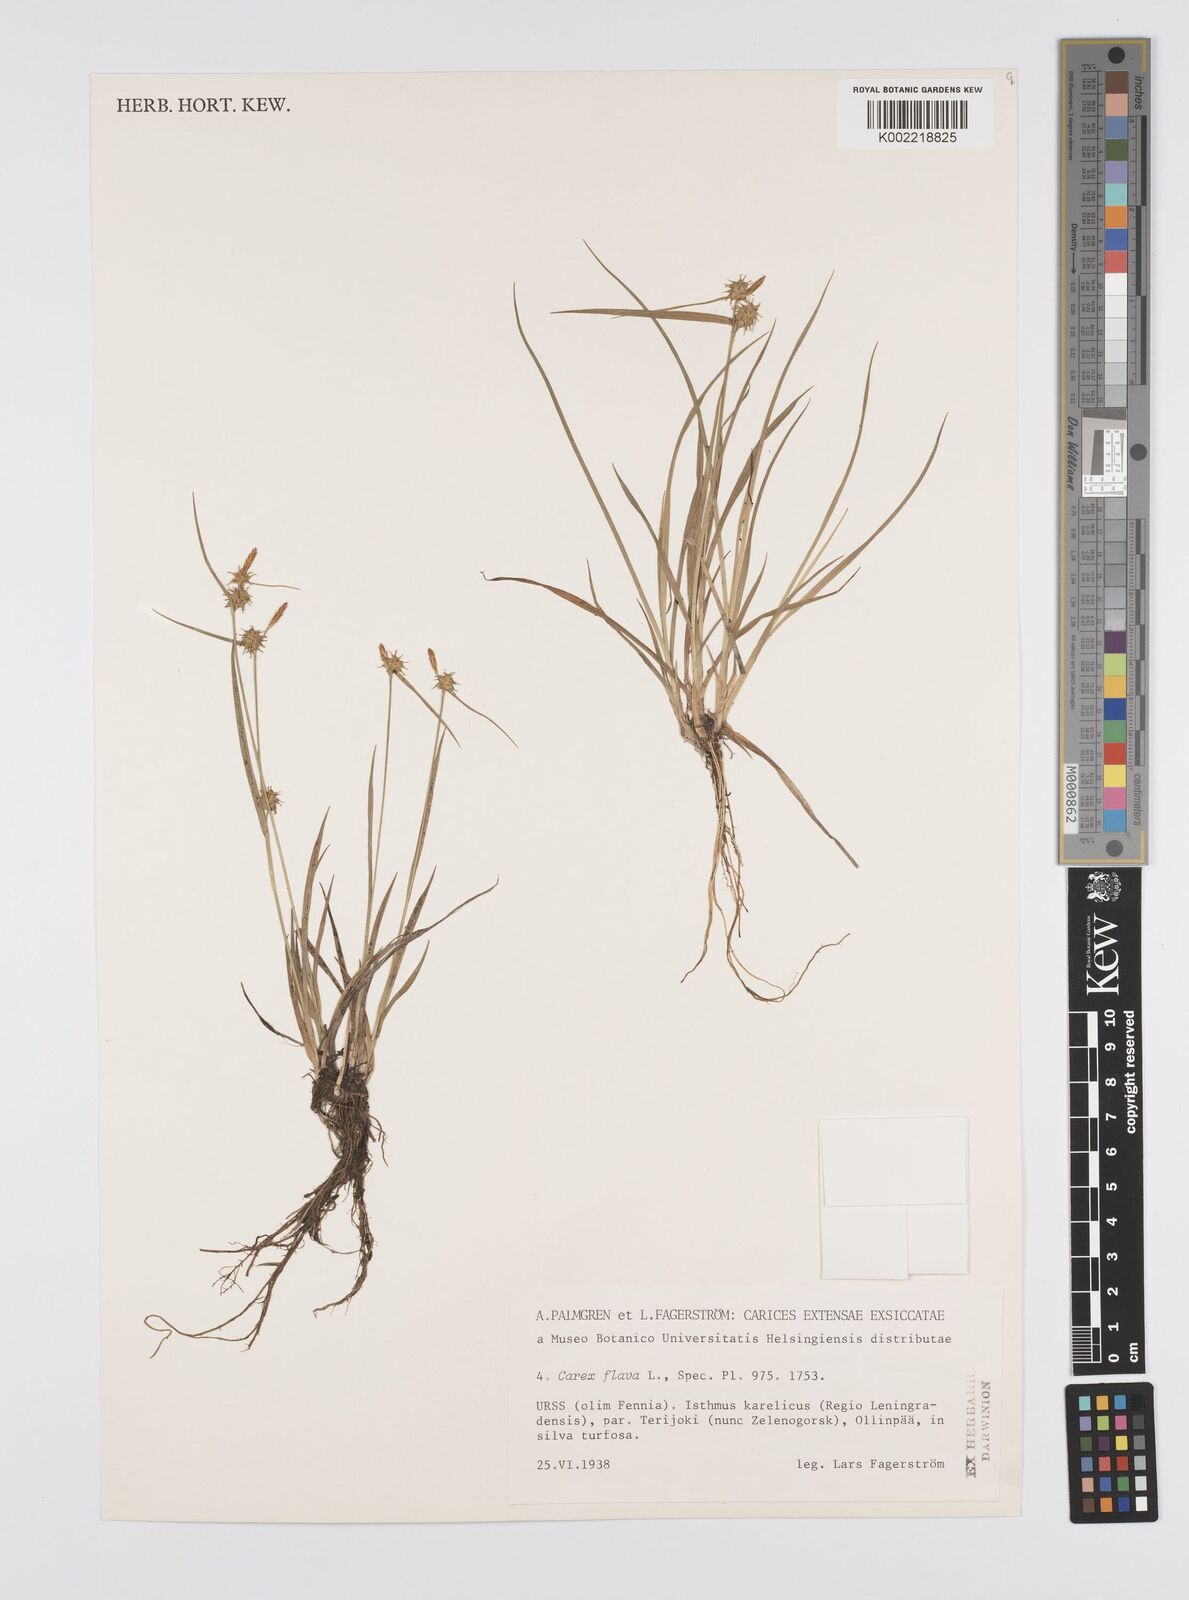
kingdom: Plantae
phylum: Tracheophyta
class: Liliopsida
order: Poales
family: Cyperaceae
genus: Carex
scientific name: Carex flava
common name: Large yellow-sedge
